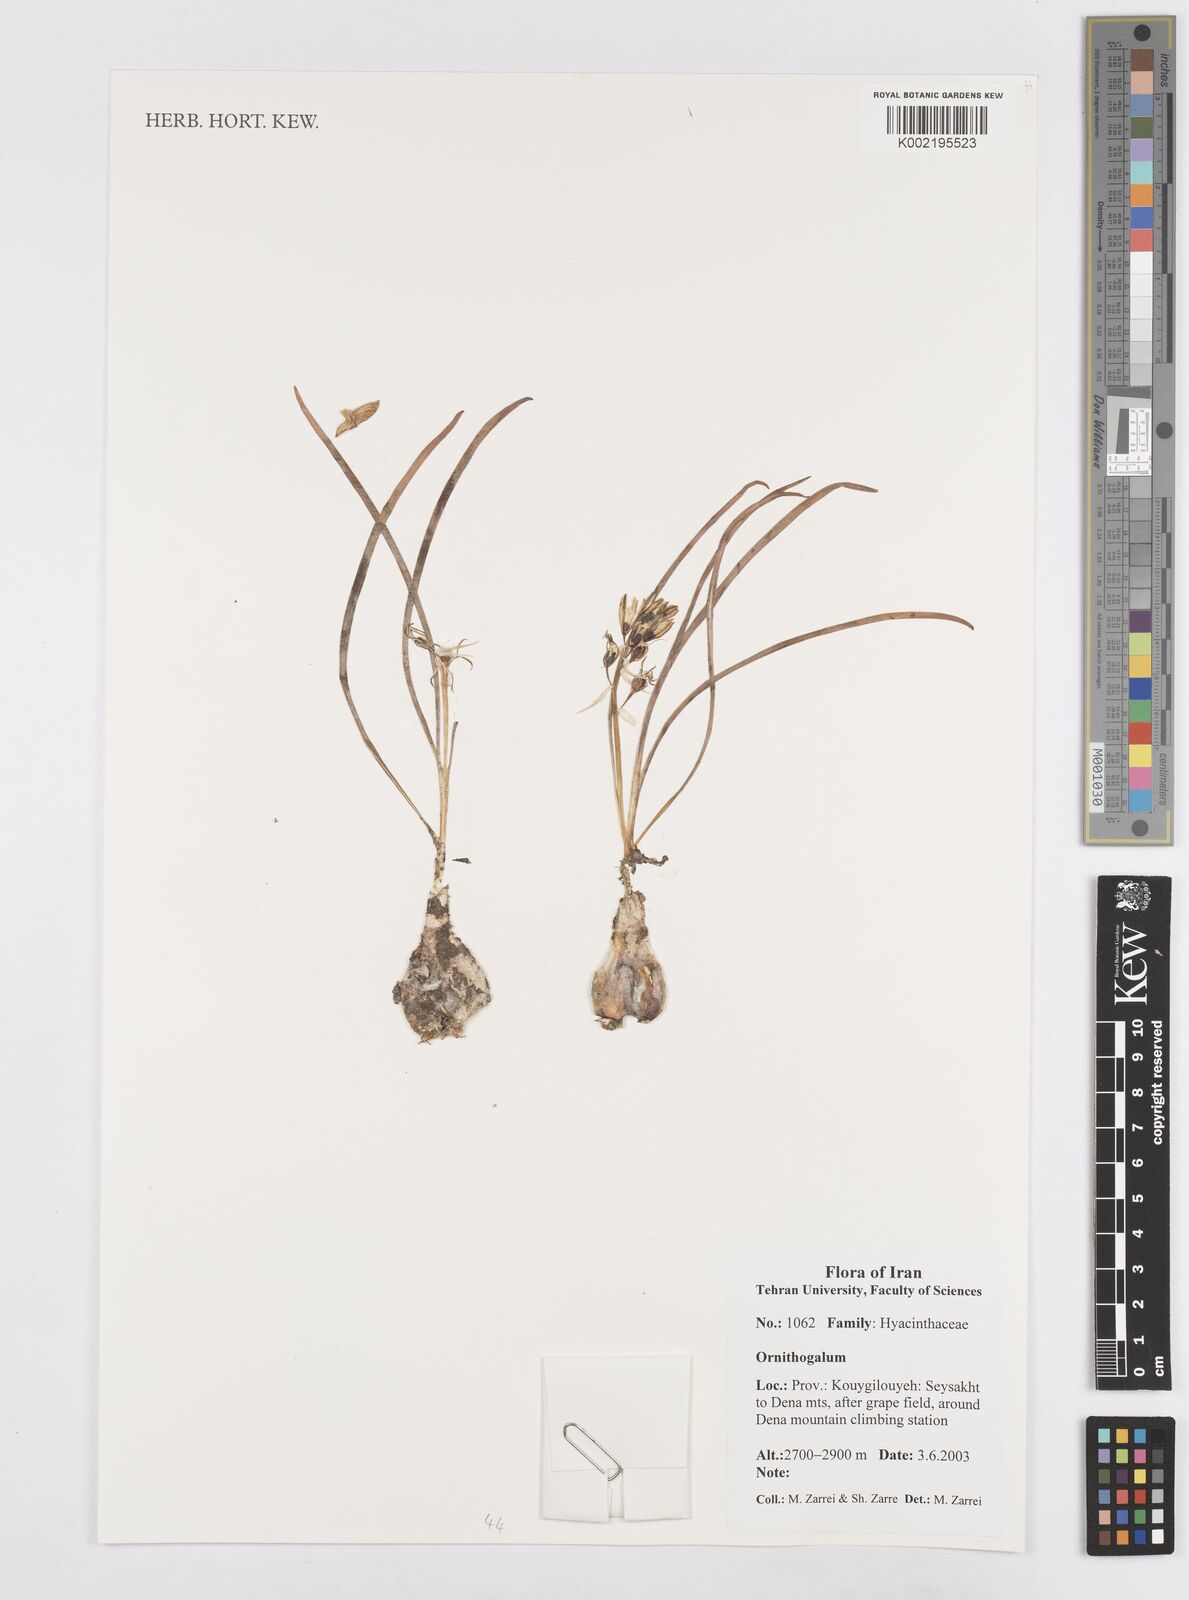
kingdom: Plantae
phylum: Tracheophyta
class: Liliopsida
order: Asparagales
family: Asparagaceae
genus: Ornithogalum
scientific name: Ornithogalum
